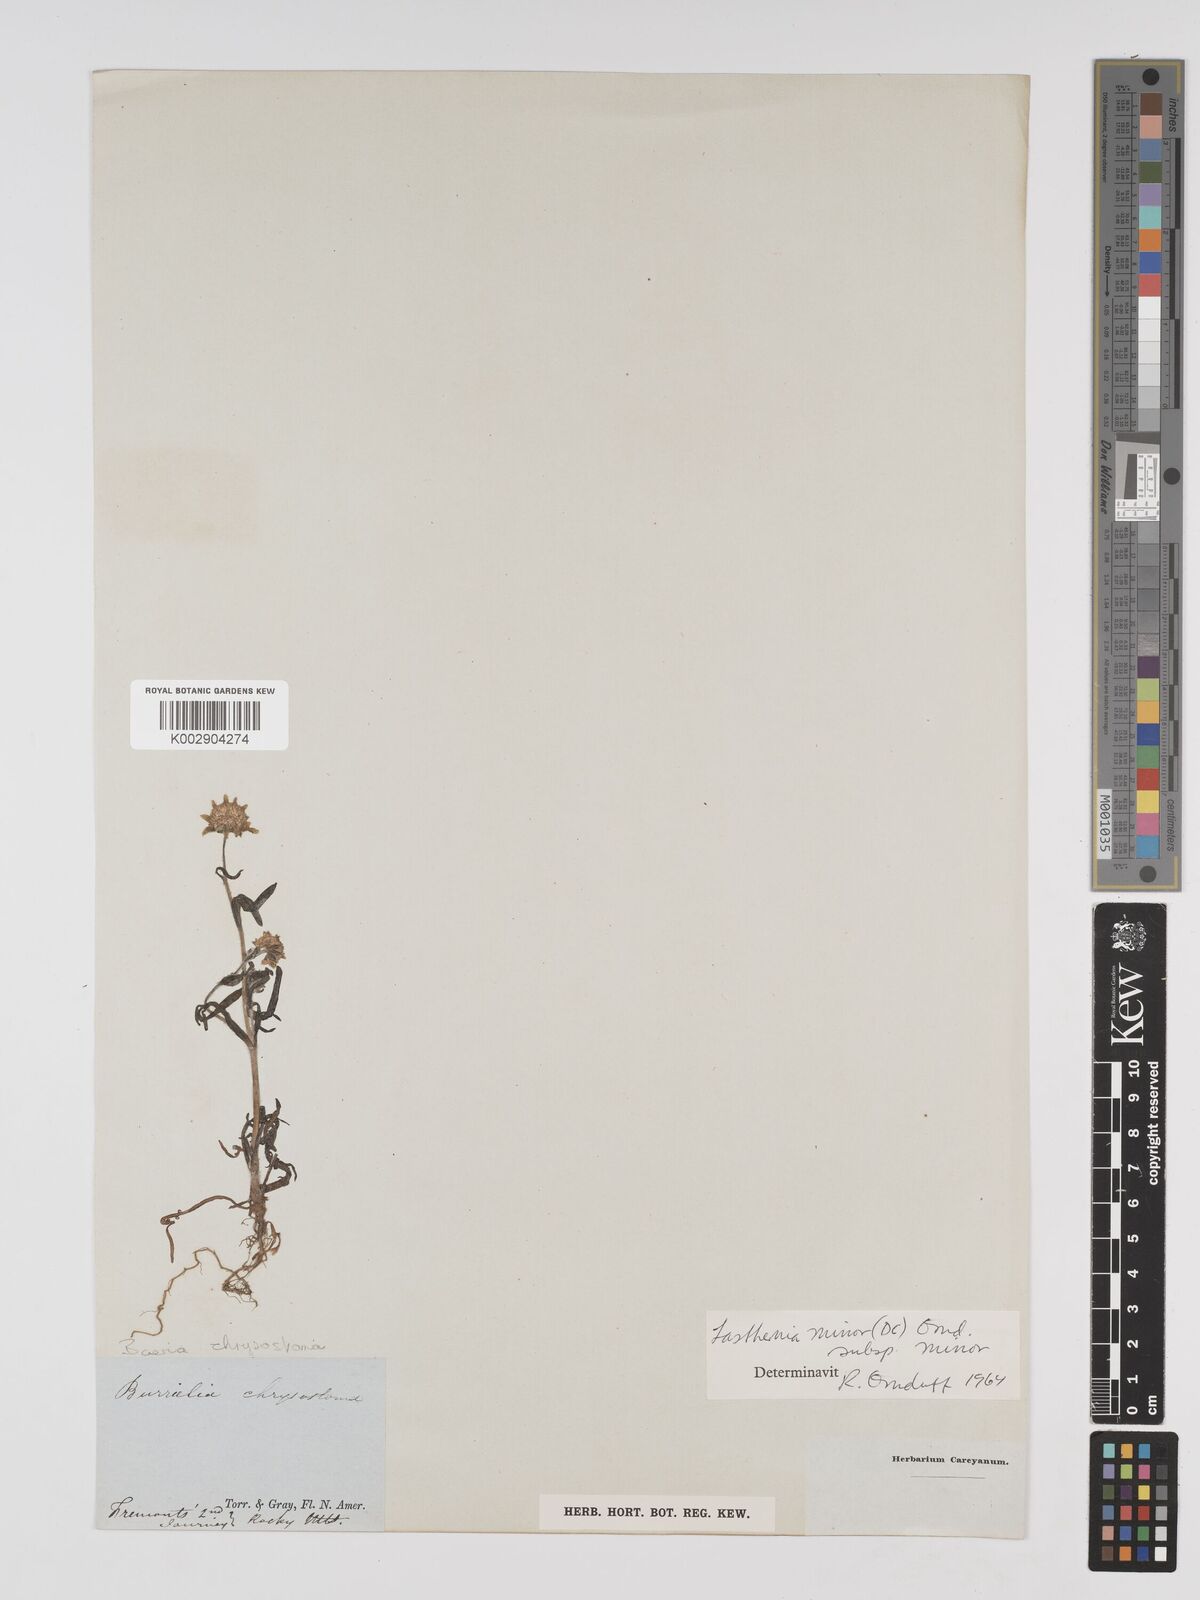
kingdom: Plantae
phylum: Tracheophyta
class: Magnoliopsida
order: Asterales
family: Asteraceae
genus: Lasthenia
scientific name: Lasthenia minor
